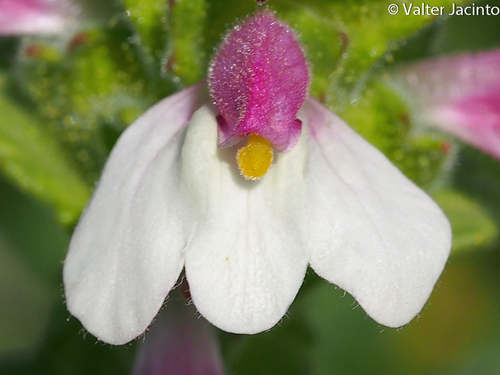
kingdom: Plantae
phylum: Tracheophyta
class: Magnoliopsida
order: Lamiales
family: Orobanchaceae
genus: Bellardia
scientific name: Bellardia trixago
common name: Mediterranean lineseed
